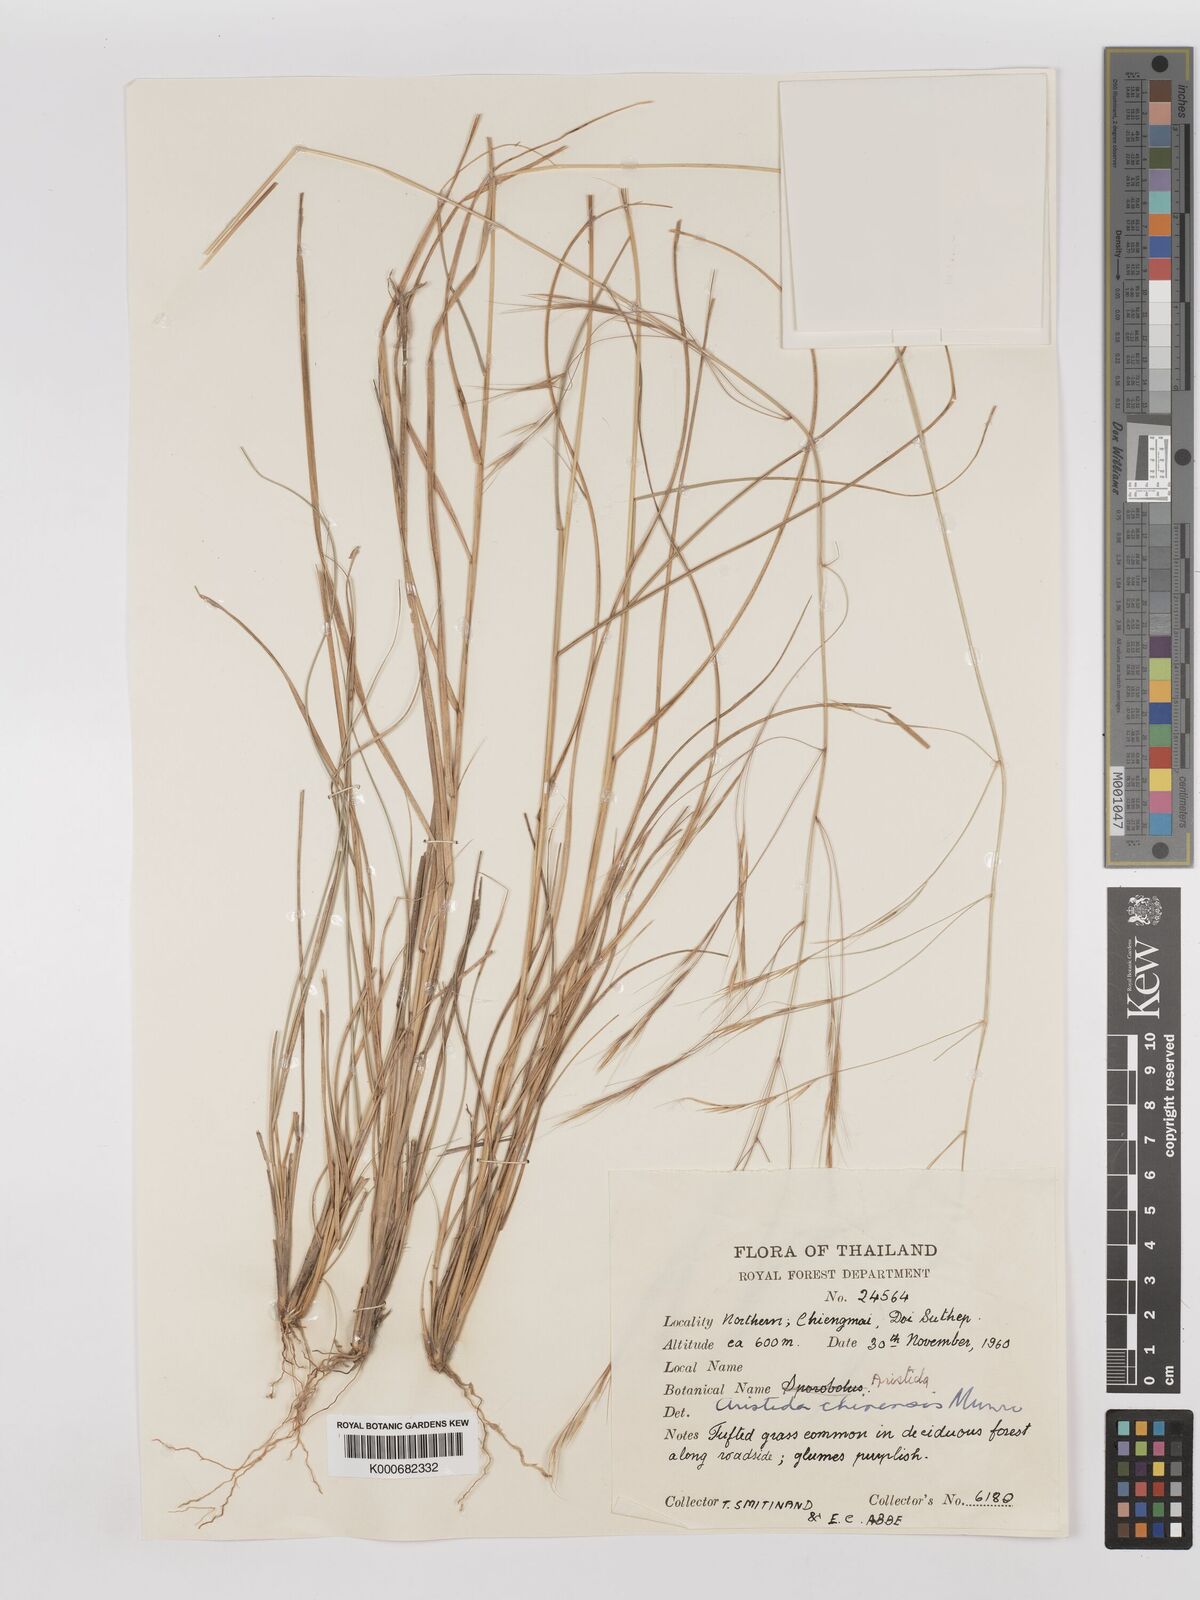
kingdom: Plantae
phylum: Tracheophyta
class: Liliopsida
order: Poales
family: Poaceae
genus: Aristida
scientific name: Aristida chinensis
